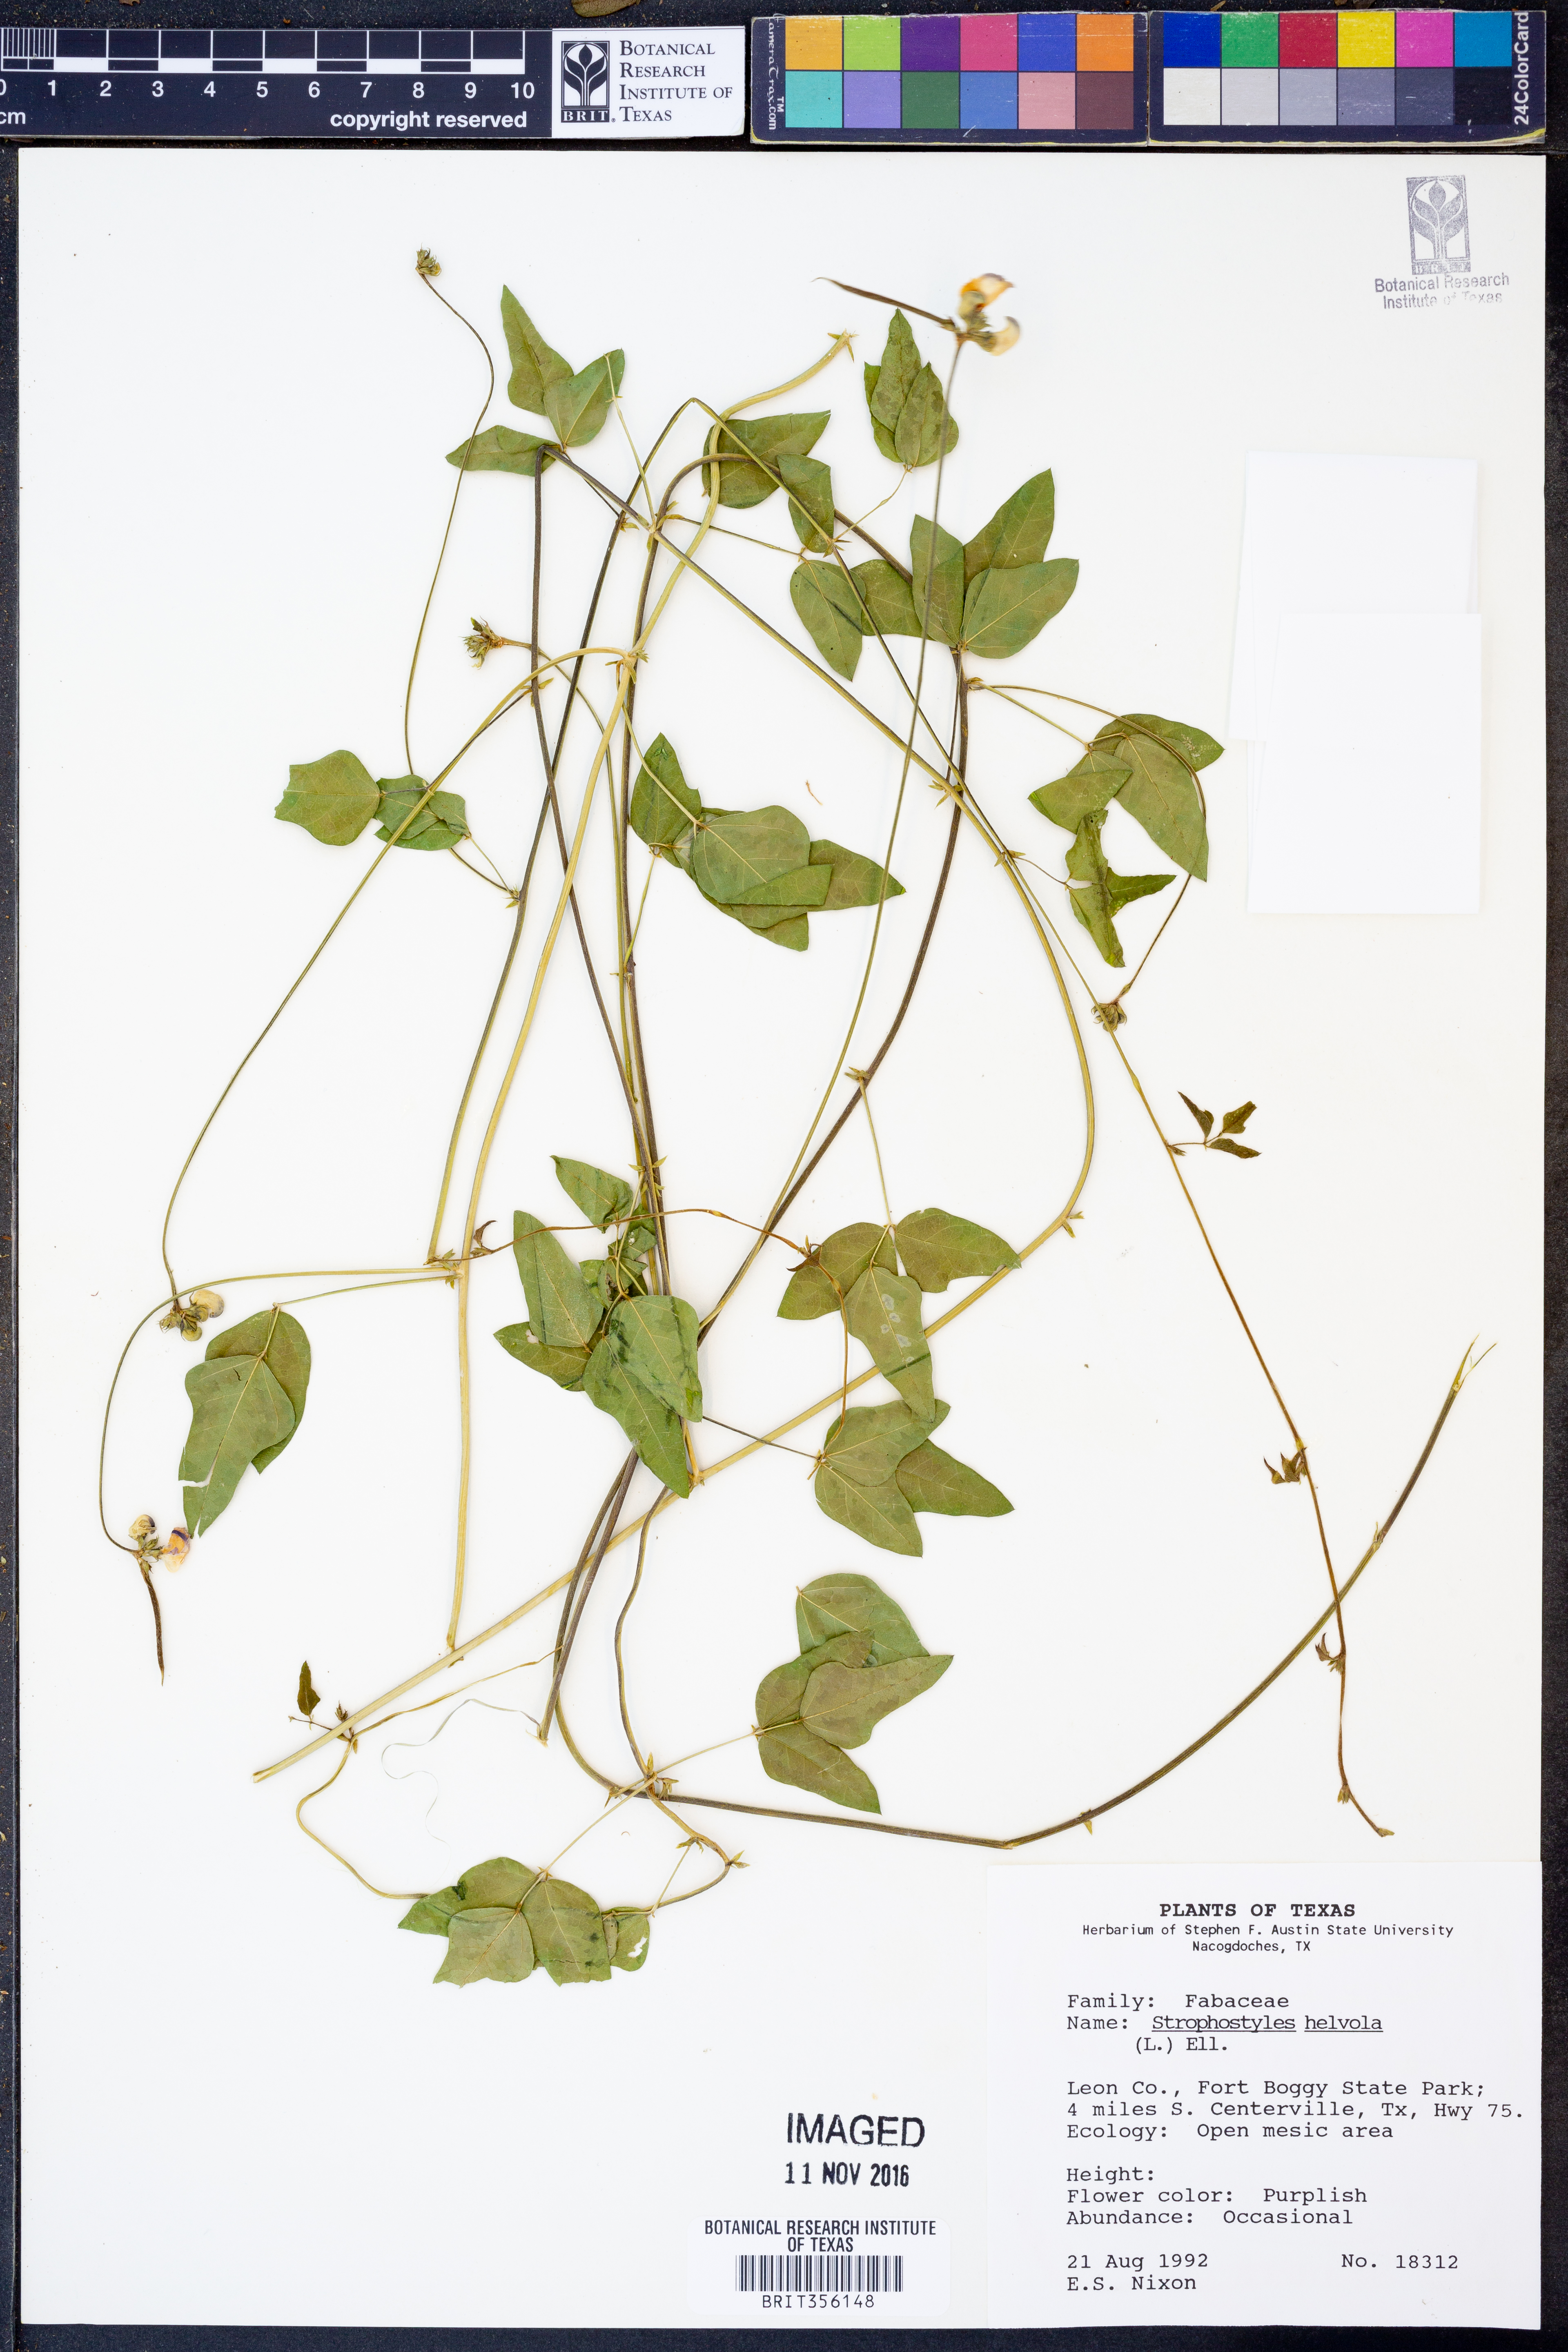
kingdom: Plantae
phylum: Tracheophyta
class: Magnoliopsida
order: Fabales
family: Fabaceae
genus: Strophostyles
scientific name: Strophostyles helvola
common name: Trailing wild bean
